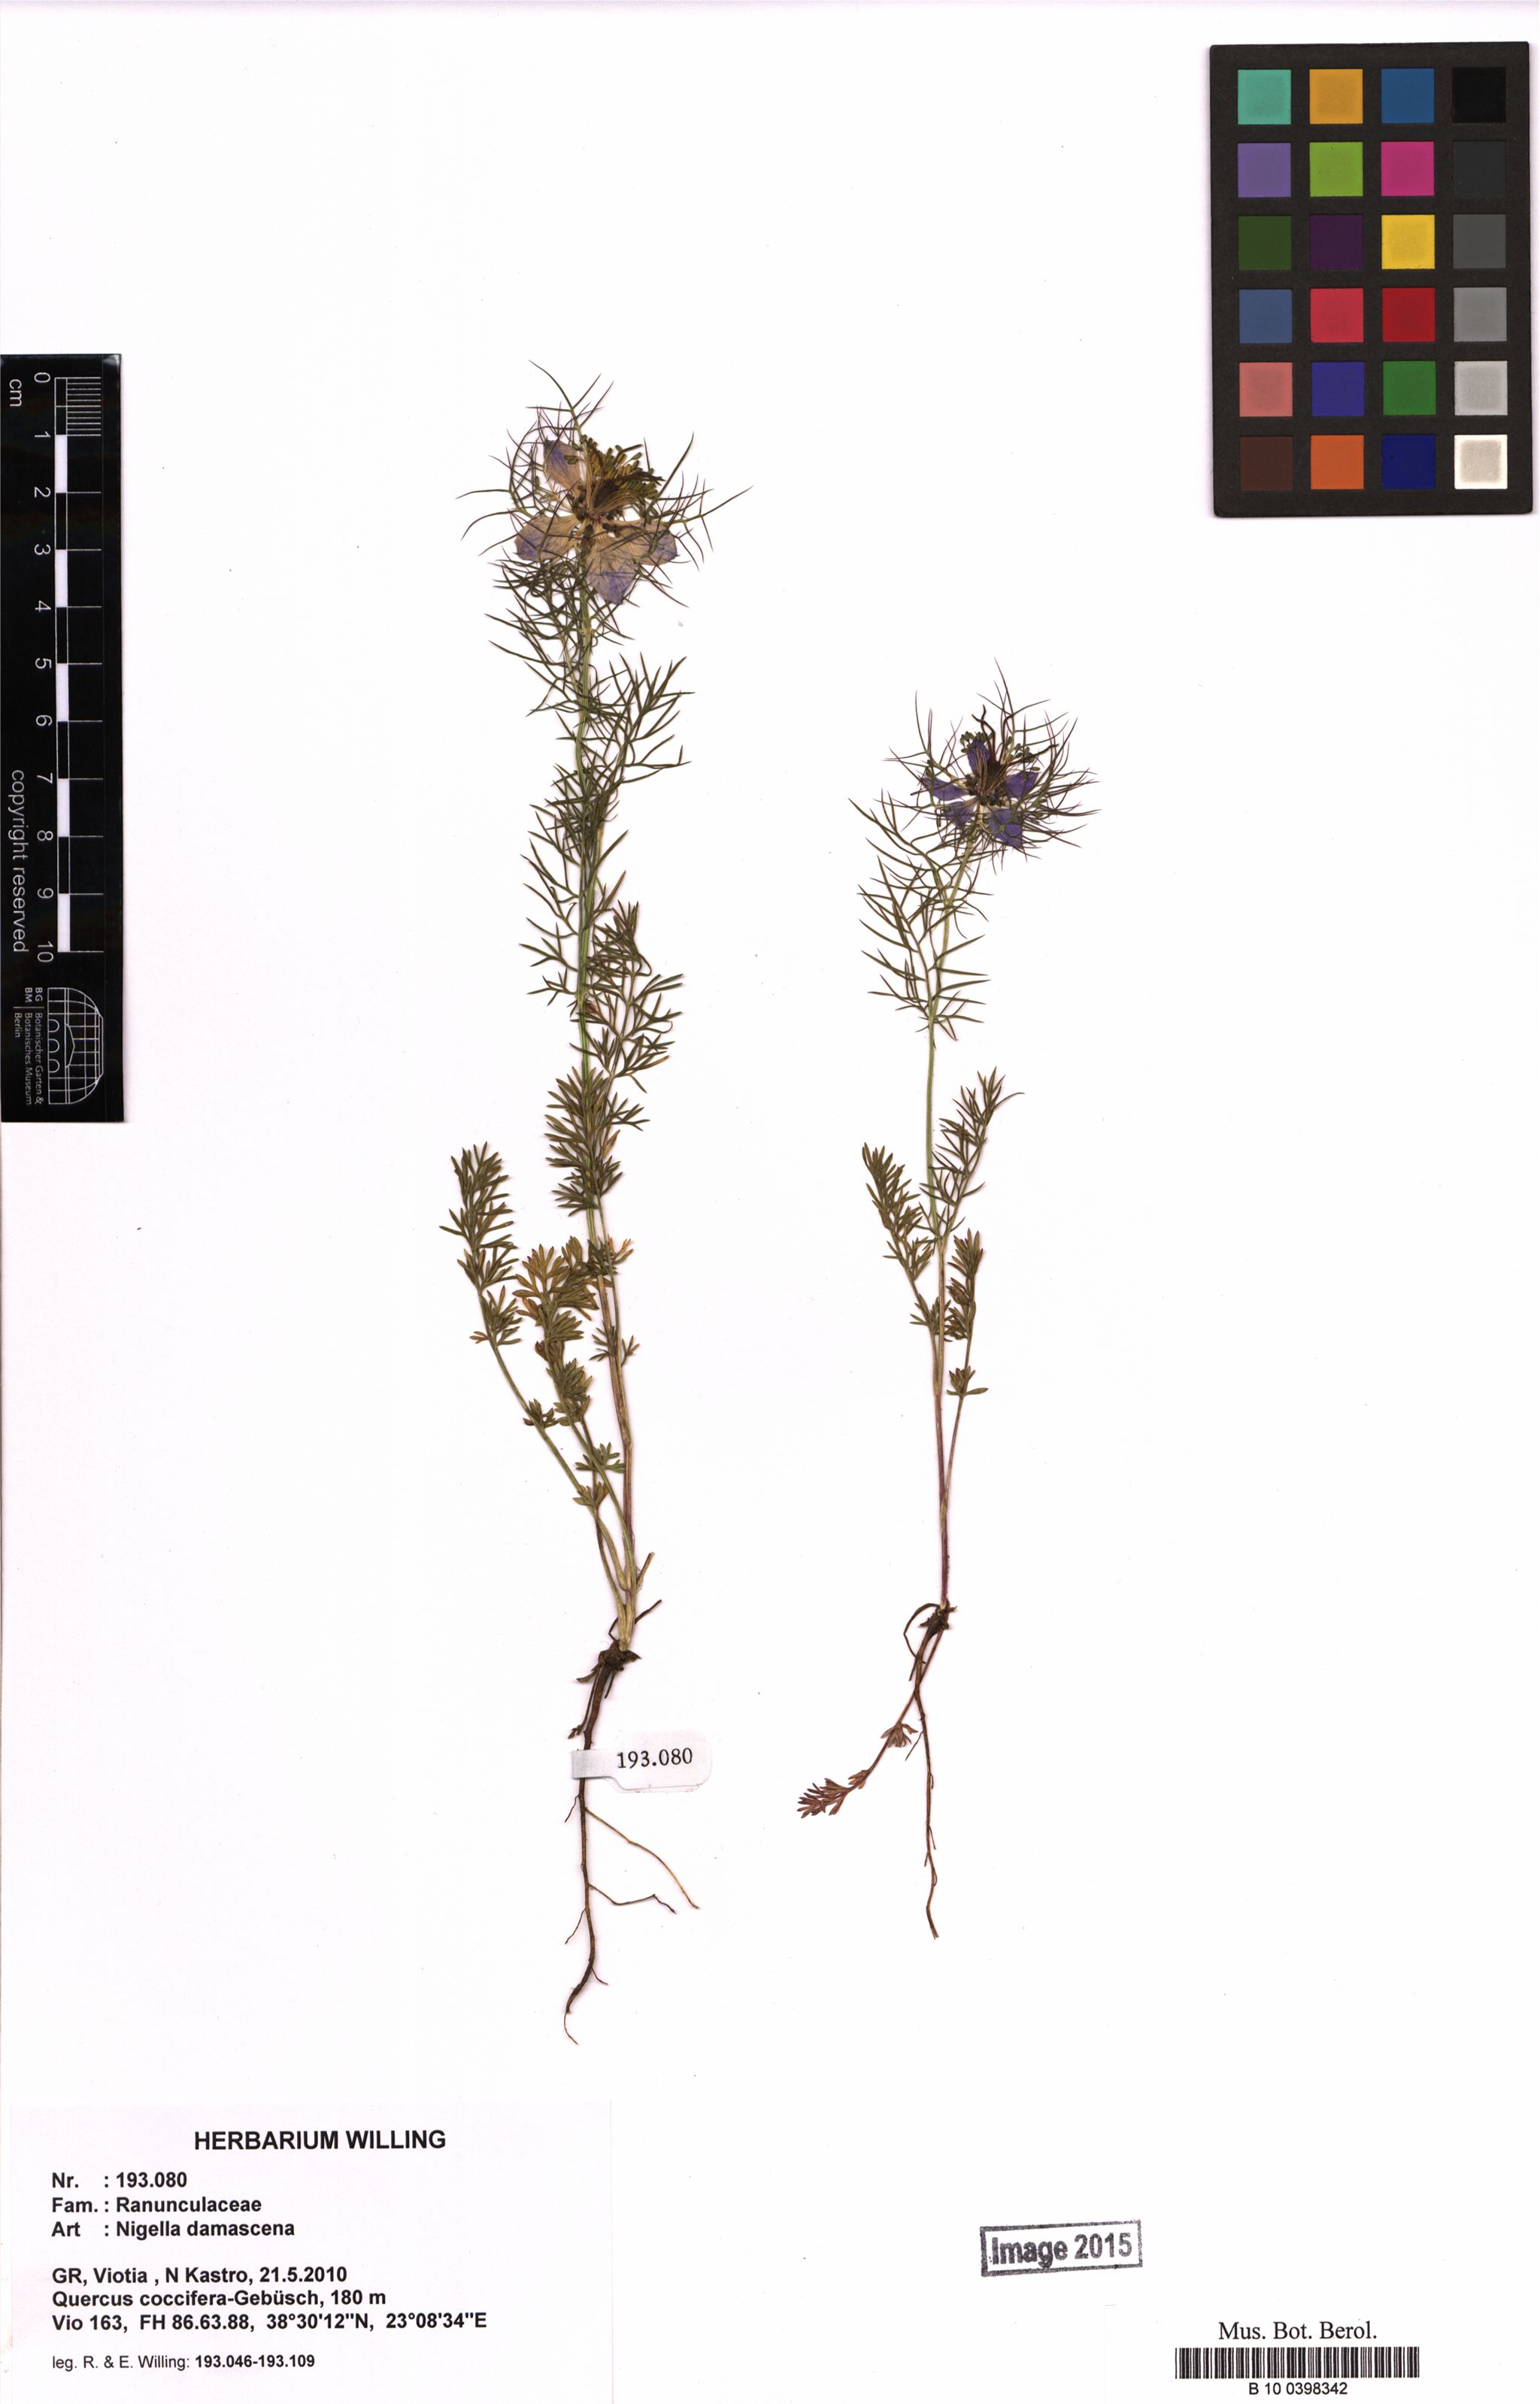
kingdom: Plantae
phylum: Tracheophyta
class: Magnoliopsida
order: Ranunculales
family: Ranunculaceae
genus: Nigella
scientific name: Nigella damascena
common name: Love-in-a-mist
